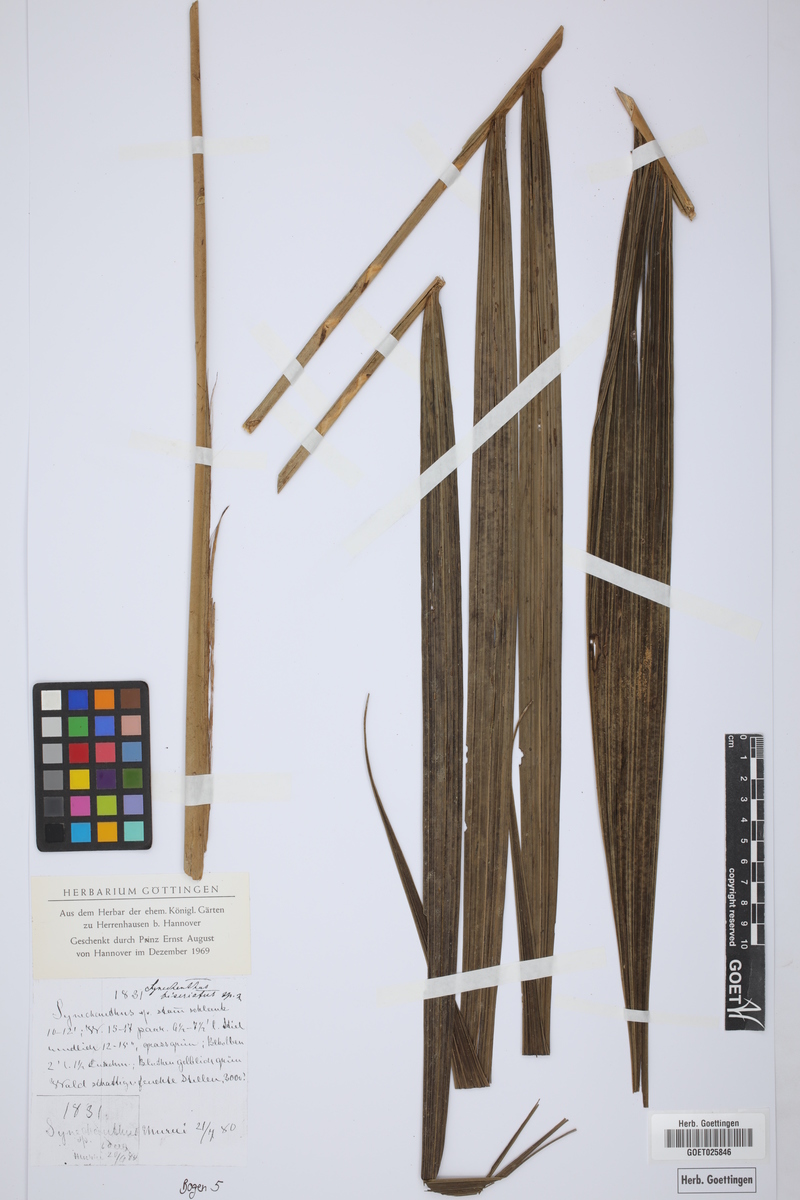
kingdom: Plantae
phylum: Tracheophyta
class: Liliopsida
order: Arecales
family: Arecaceae
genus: Synechanthus
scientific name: Synechanthus
